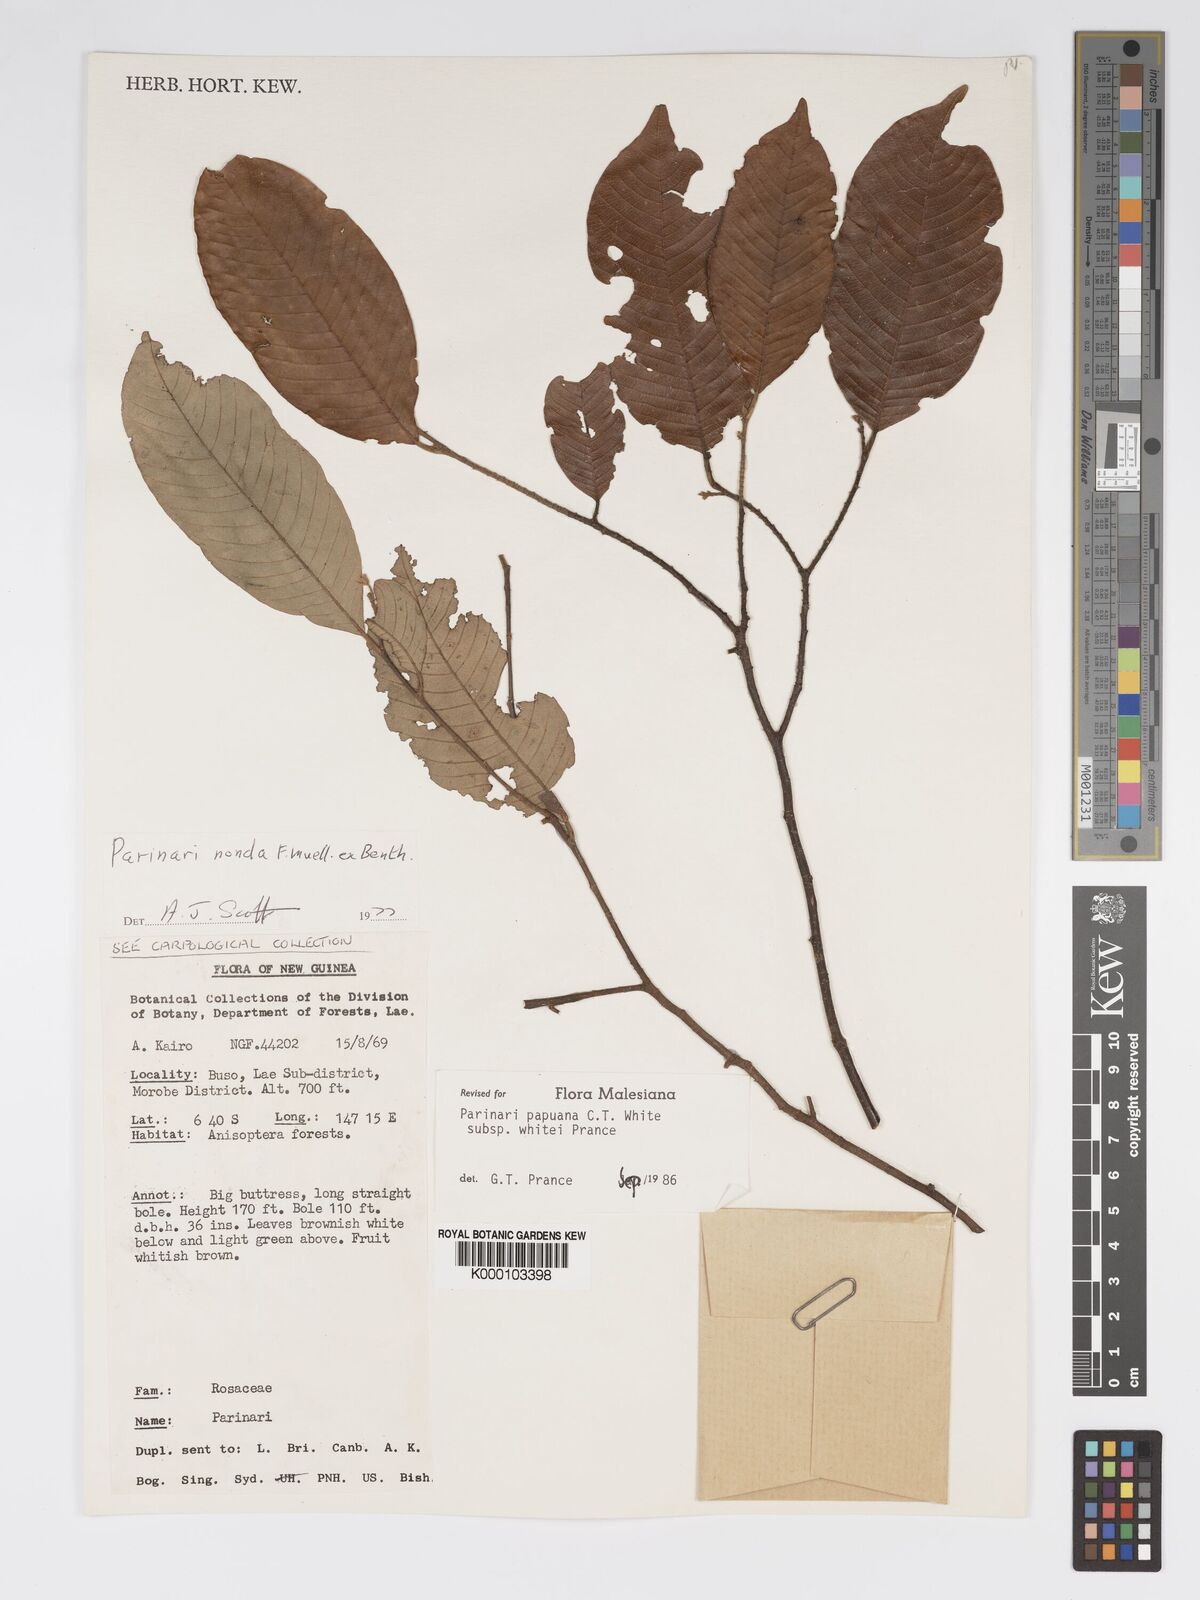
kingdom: Plantae
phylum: Tracheophyta
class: Magnoliopsida
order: Malpighiales
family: Chrysobalanaceae
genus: Parinari
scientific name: Parinari papuana
